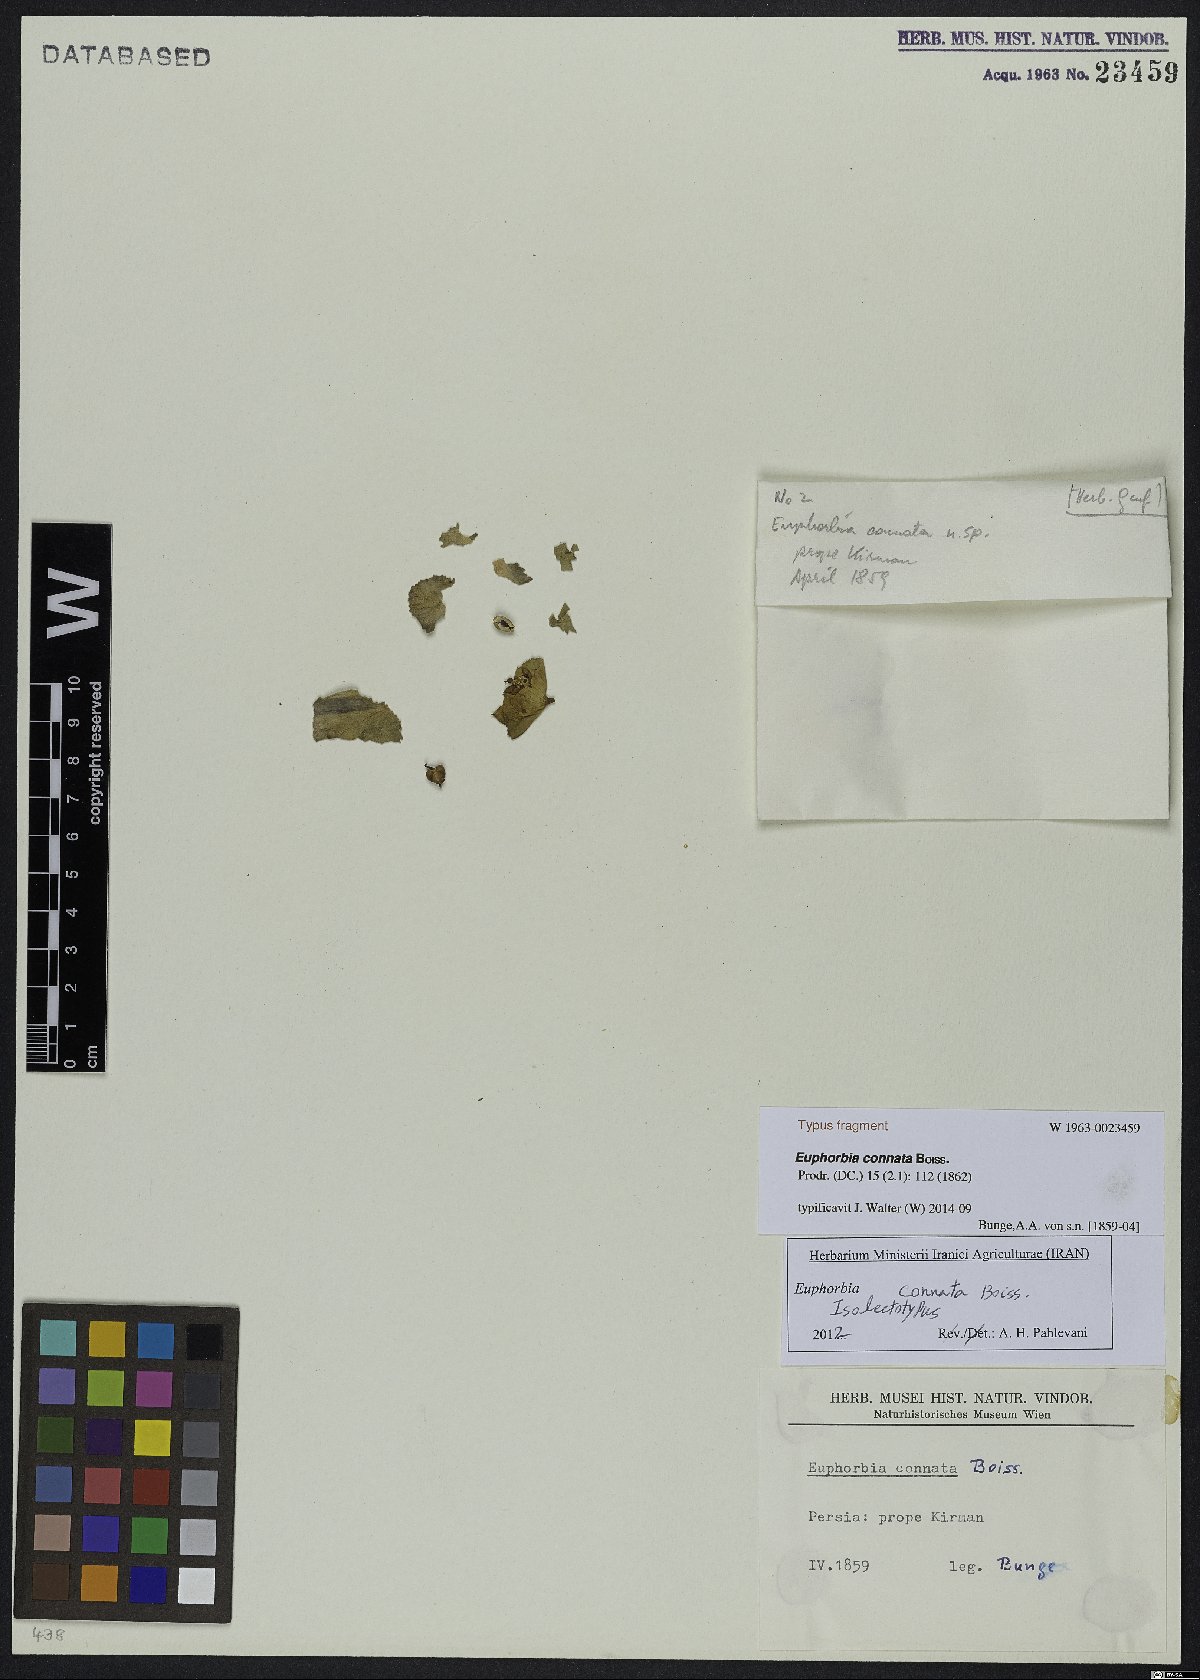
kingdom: Plantae
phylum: Tracheophyta
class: Magnoliopsida
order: Malpighiales
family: Euphorbiaceae
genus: Euphorbia
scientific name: Euphorbia connata
